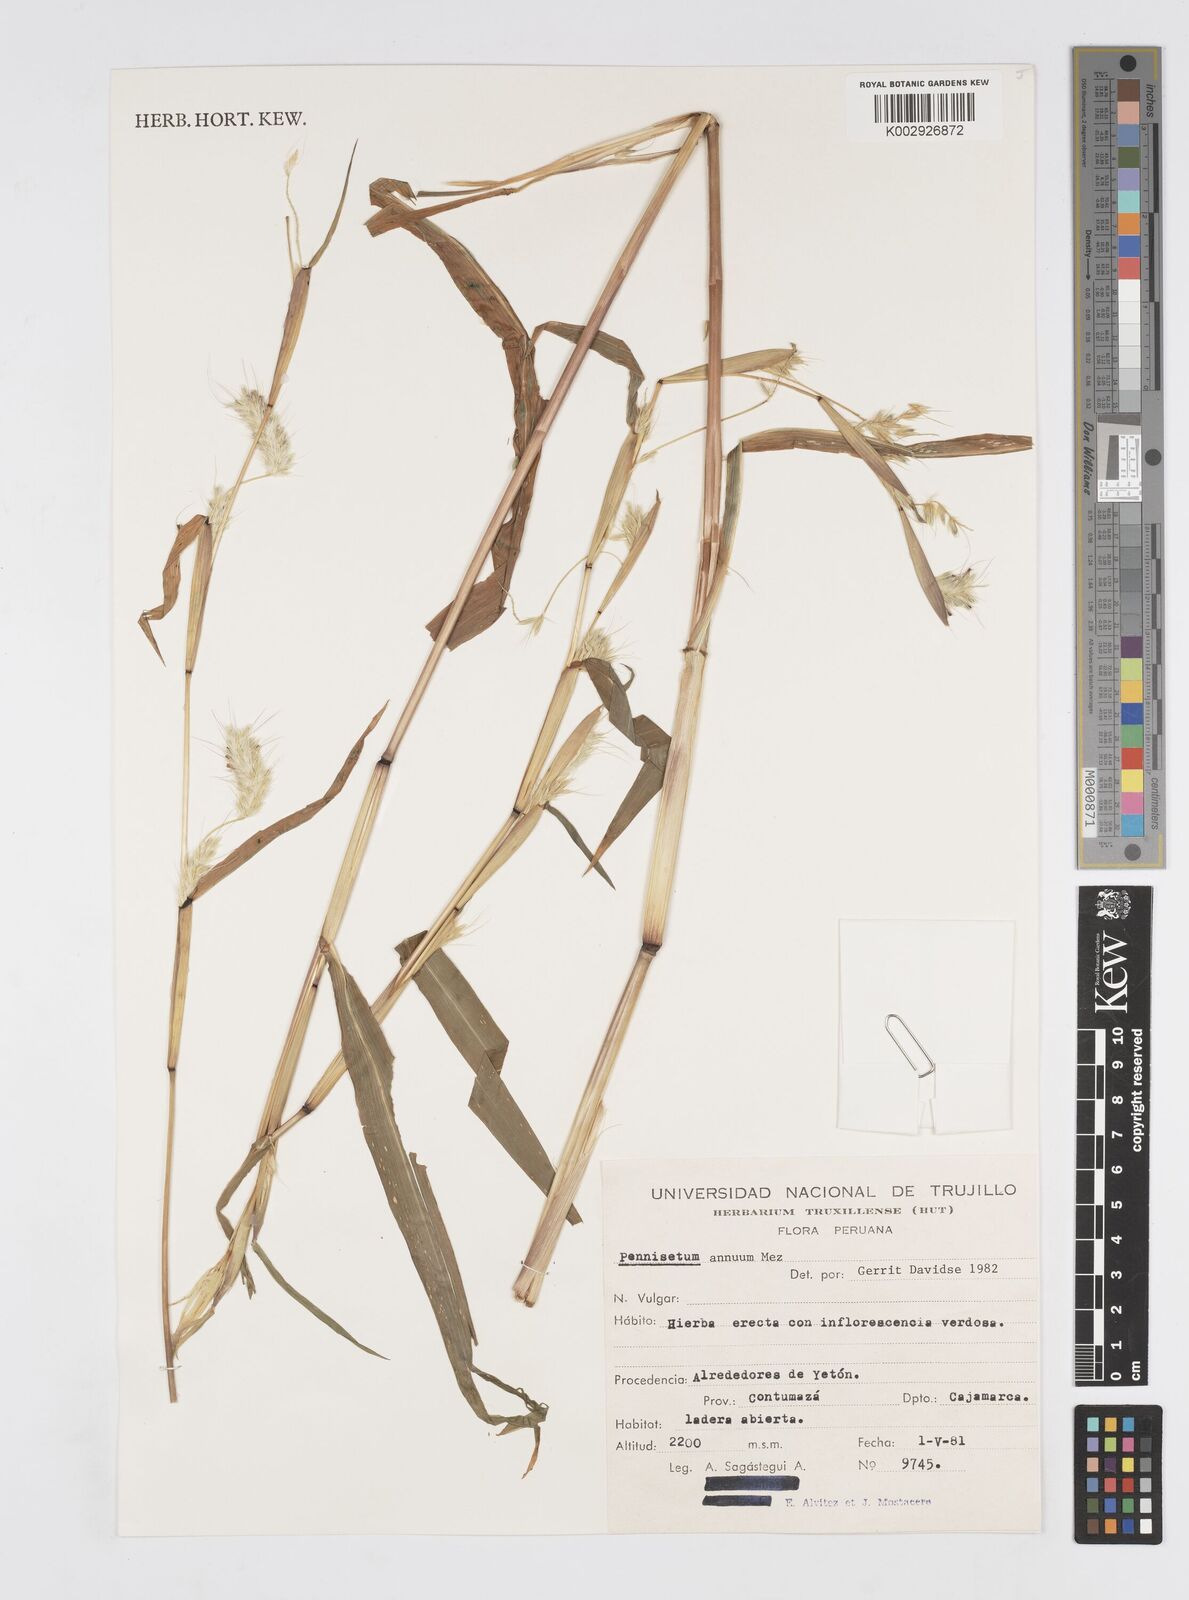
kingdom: Plantae
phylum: Tracheophyta
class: Liliopsida
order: Poales
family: Poaceae
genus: Cenchrus
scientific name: Cenchrus annuus
